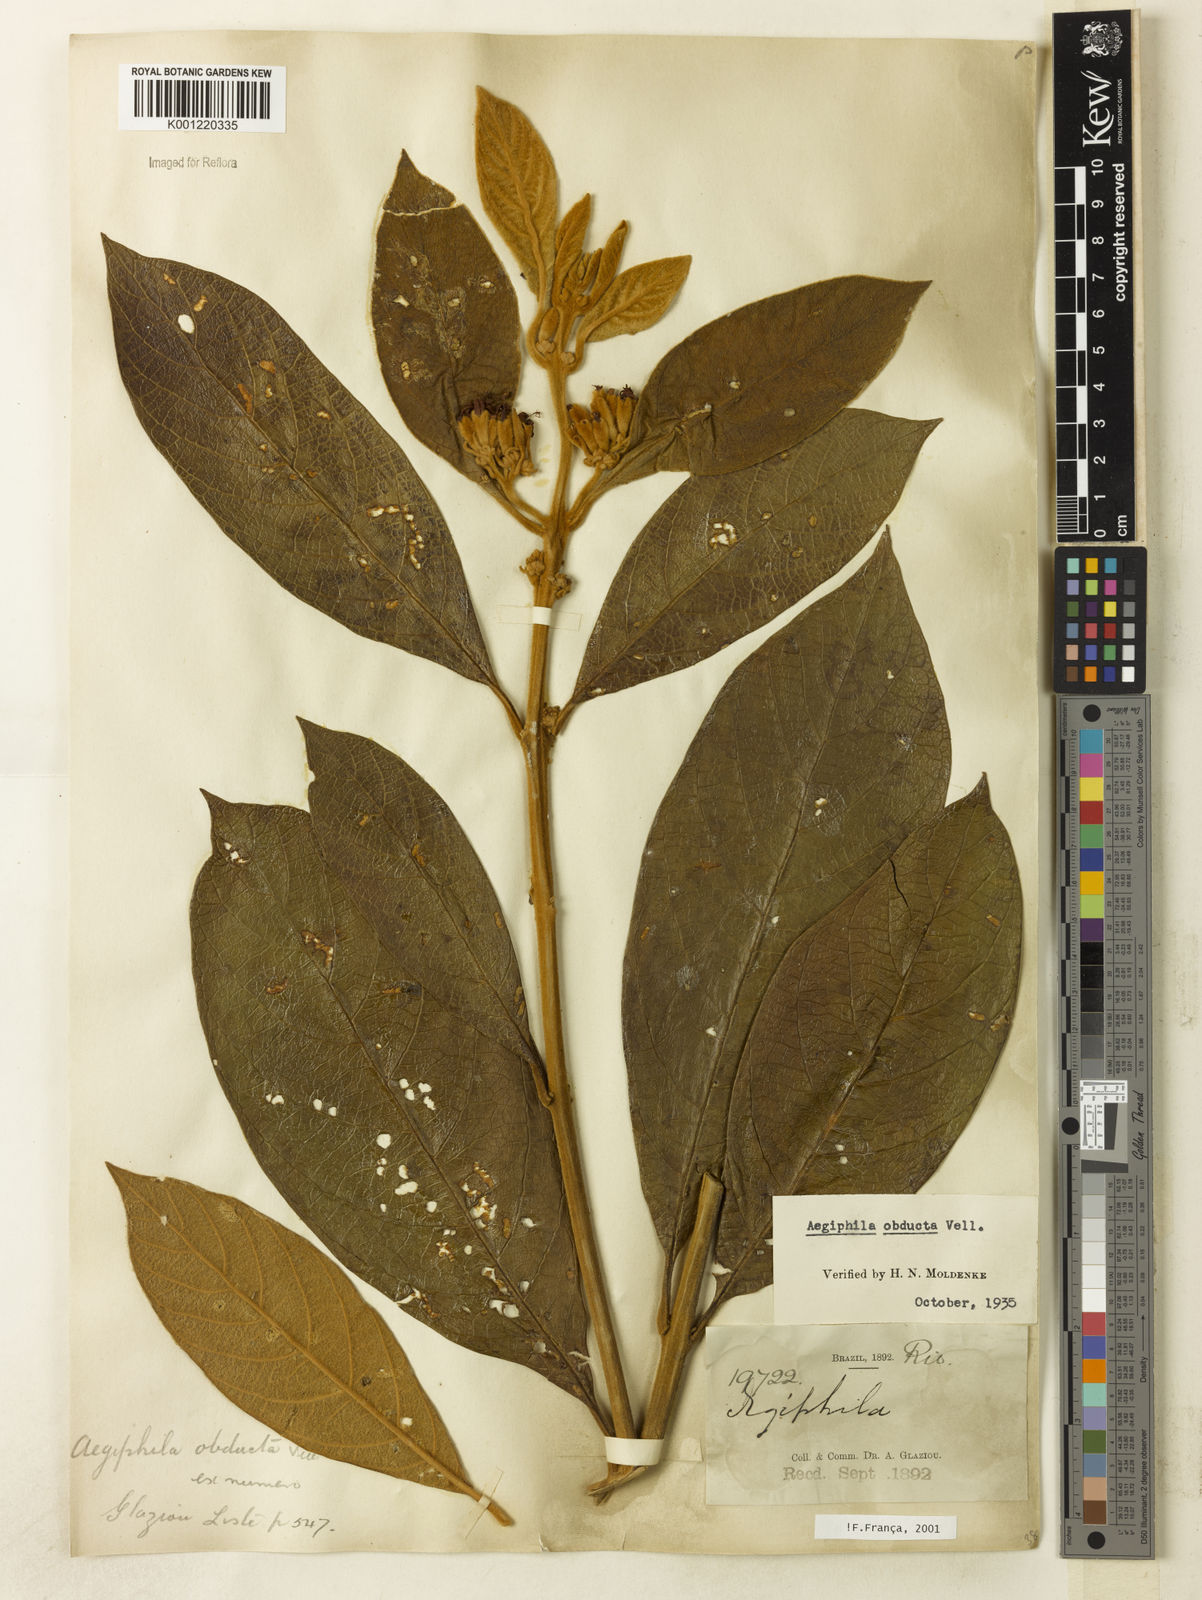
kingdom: Plantae
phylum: Tracheophyta
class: Magnoliopsida
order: Lamiales
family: Lamiaceae
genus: Aegiphila
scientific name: Aegiphila obducta
